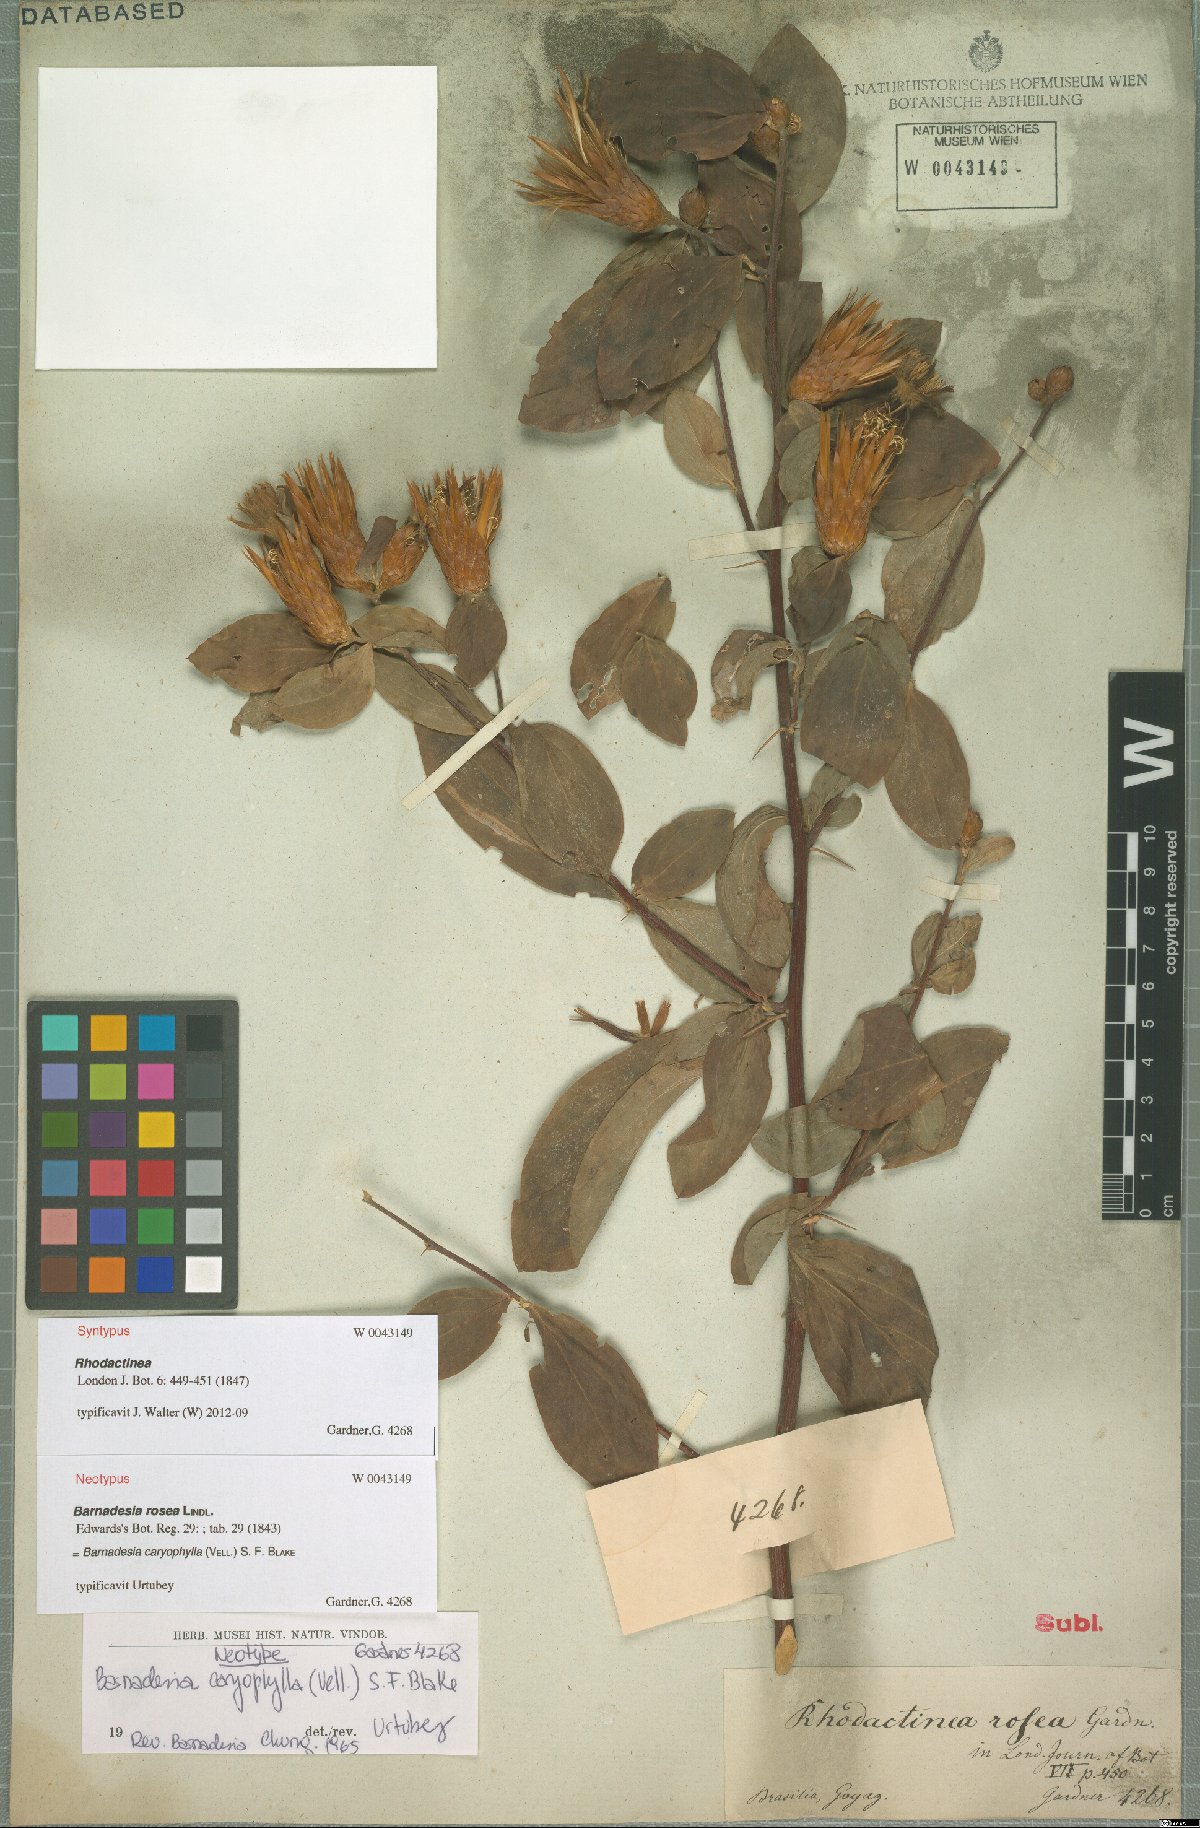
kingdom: Plantae
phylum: Tracheophyta
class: Magnoliopsida
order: Asterales
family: Asteraceae
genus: Barnadesia
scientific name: Barnadesia caryophylla
